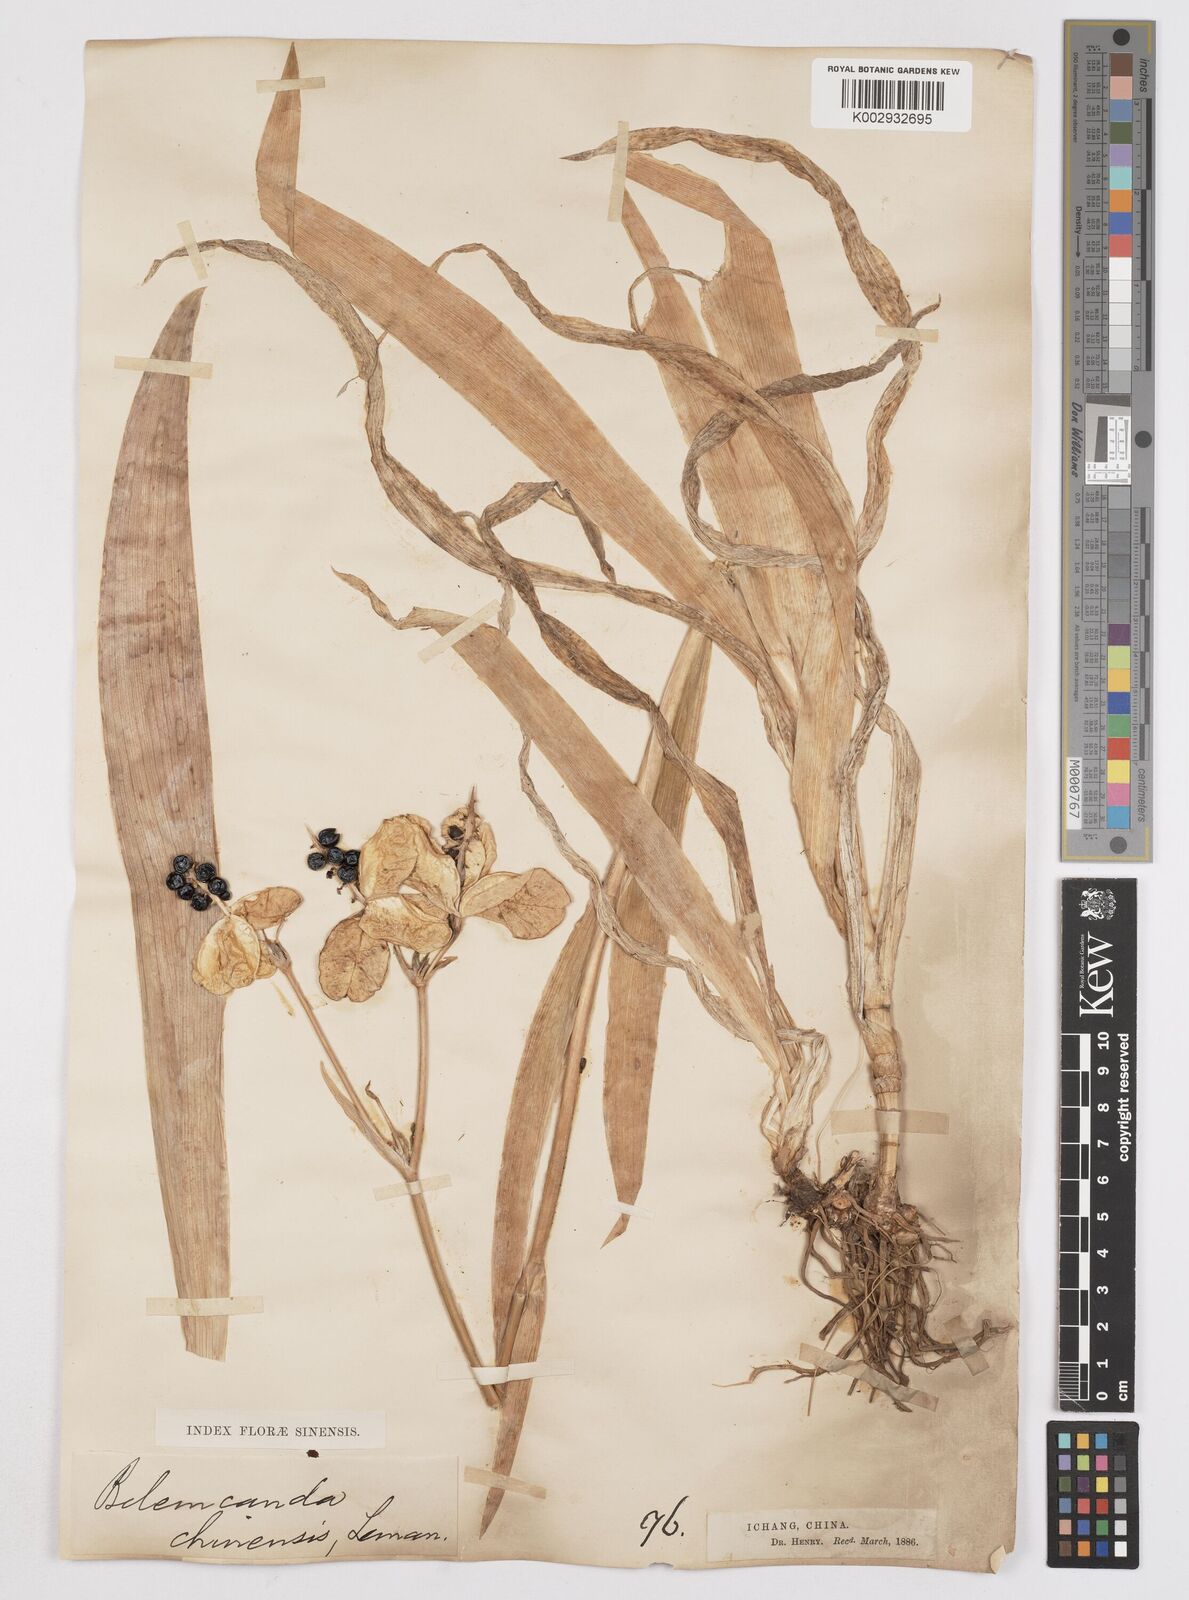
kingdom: Plantae
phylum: Tracheophyta
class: Liliopsida
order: Asparagales
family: Iridaceae
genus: Iris
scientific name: Iris
